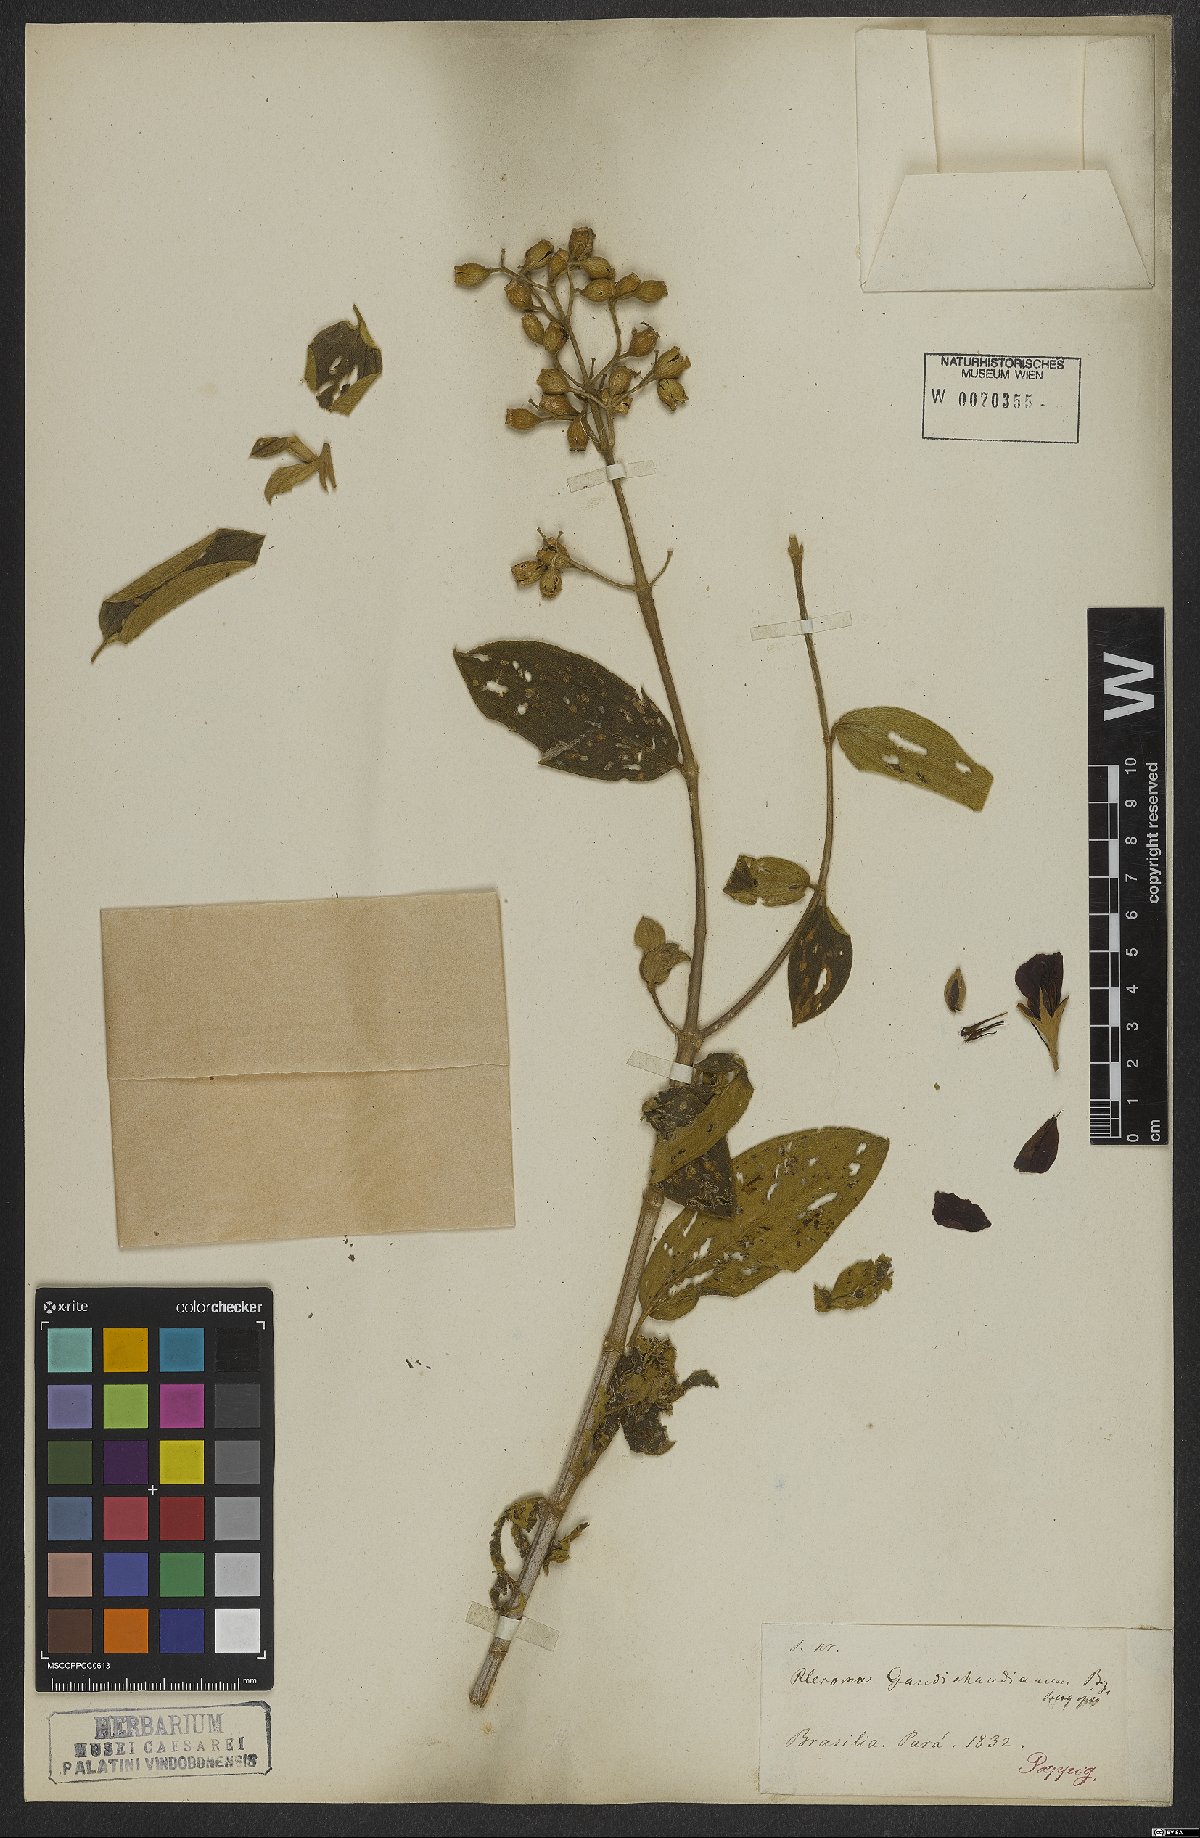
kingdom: Plantae
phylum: Tracheophyta
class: Magnoliopsida
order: Myrtales
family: Melastomataceae
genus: Pleroma
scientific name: Pleroma gaudichaudianum
